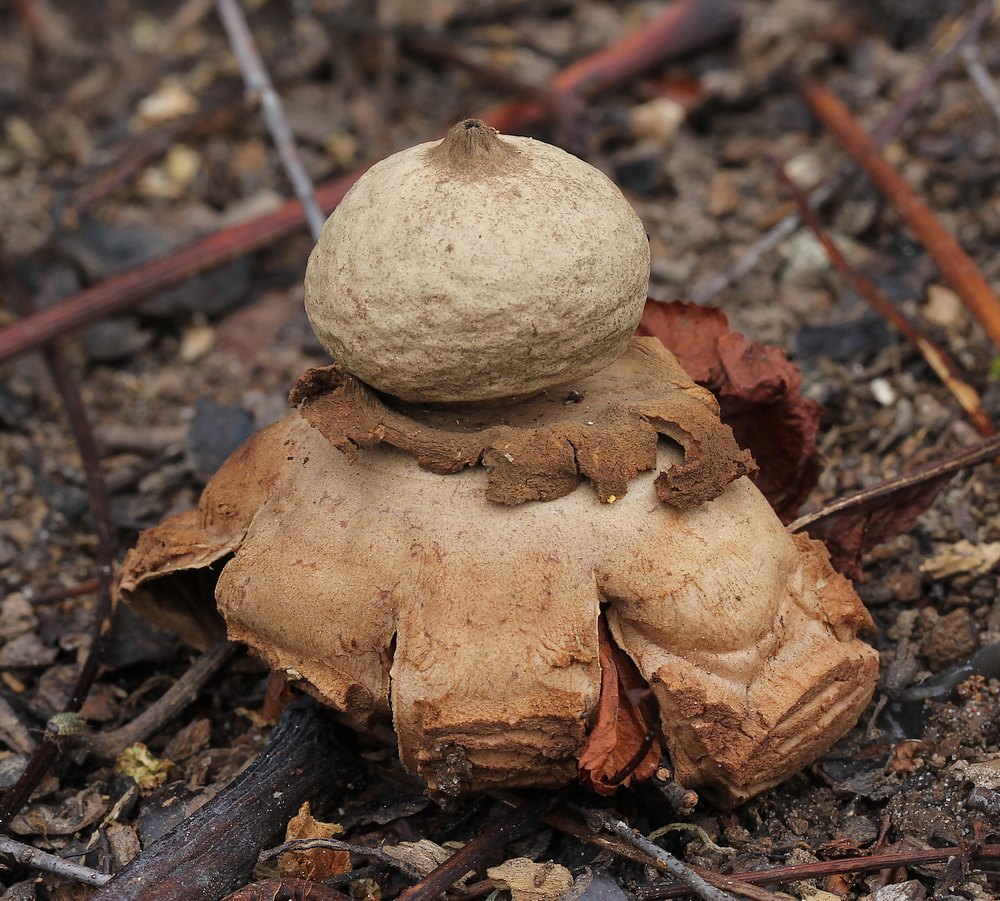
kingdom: Fungi
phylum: Basidiomycota
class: Agaricomycetes
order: Geastrales
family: Geastraceae
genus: Geastrum
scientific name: Geastrum michelianum
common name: kødet stjernebold
